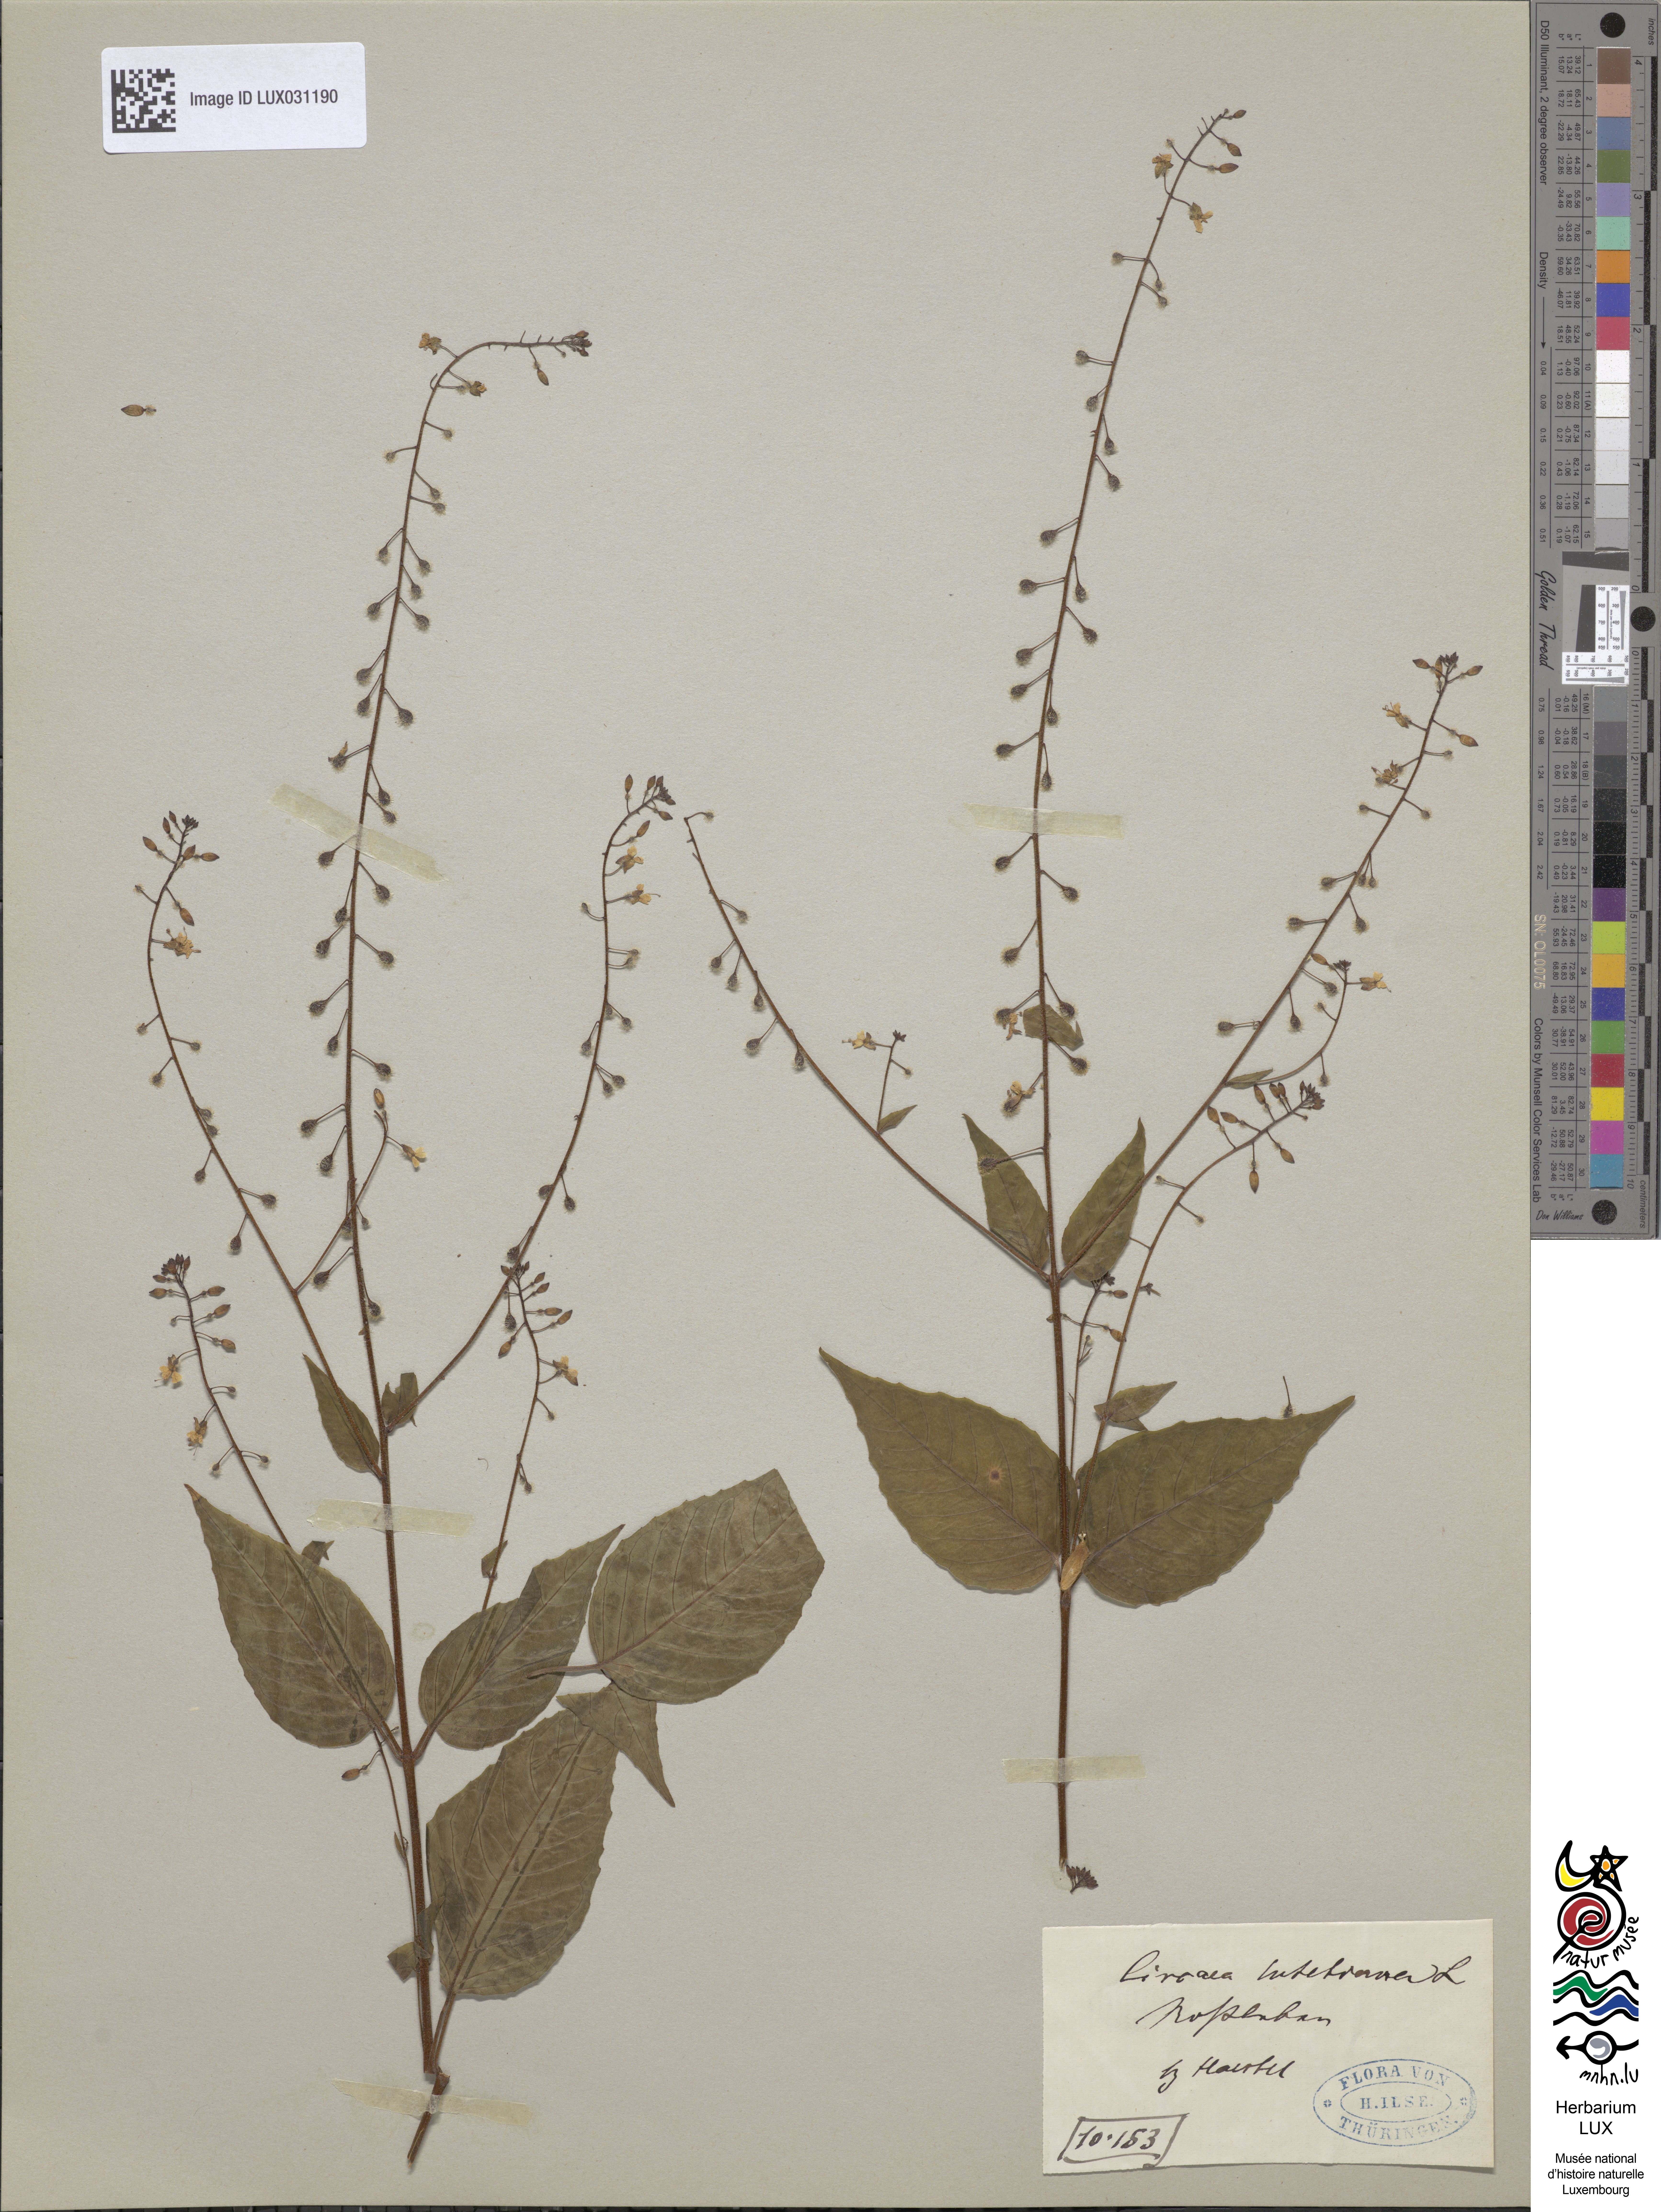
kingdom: Plantae
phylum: Tracheophyta
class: Magnoliopsida
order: Myrtales
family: Onagraceae
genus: Circaea
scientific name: Circaea lutetiana
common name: Enchanter's-nightshade
